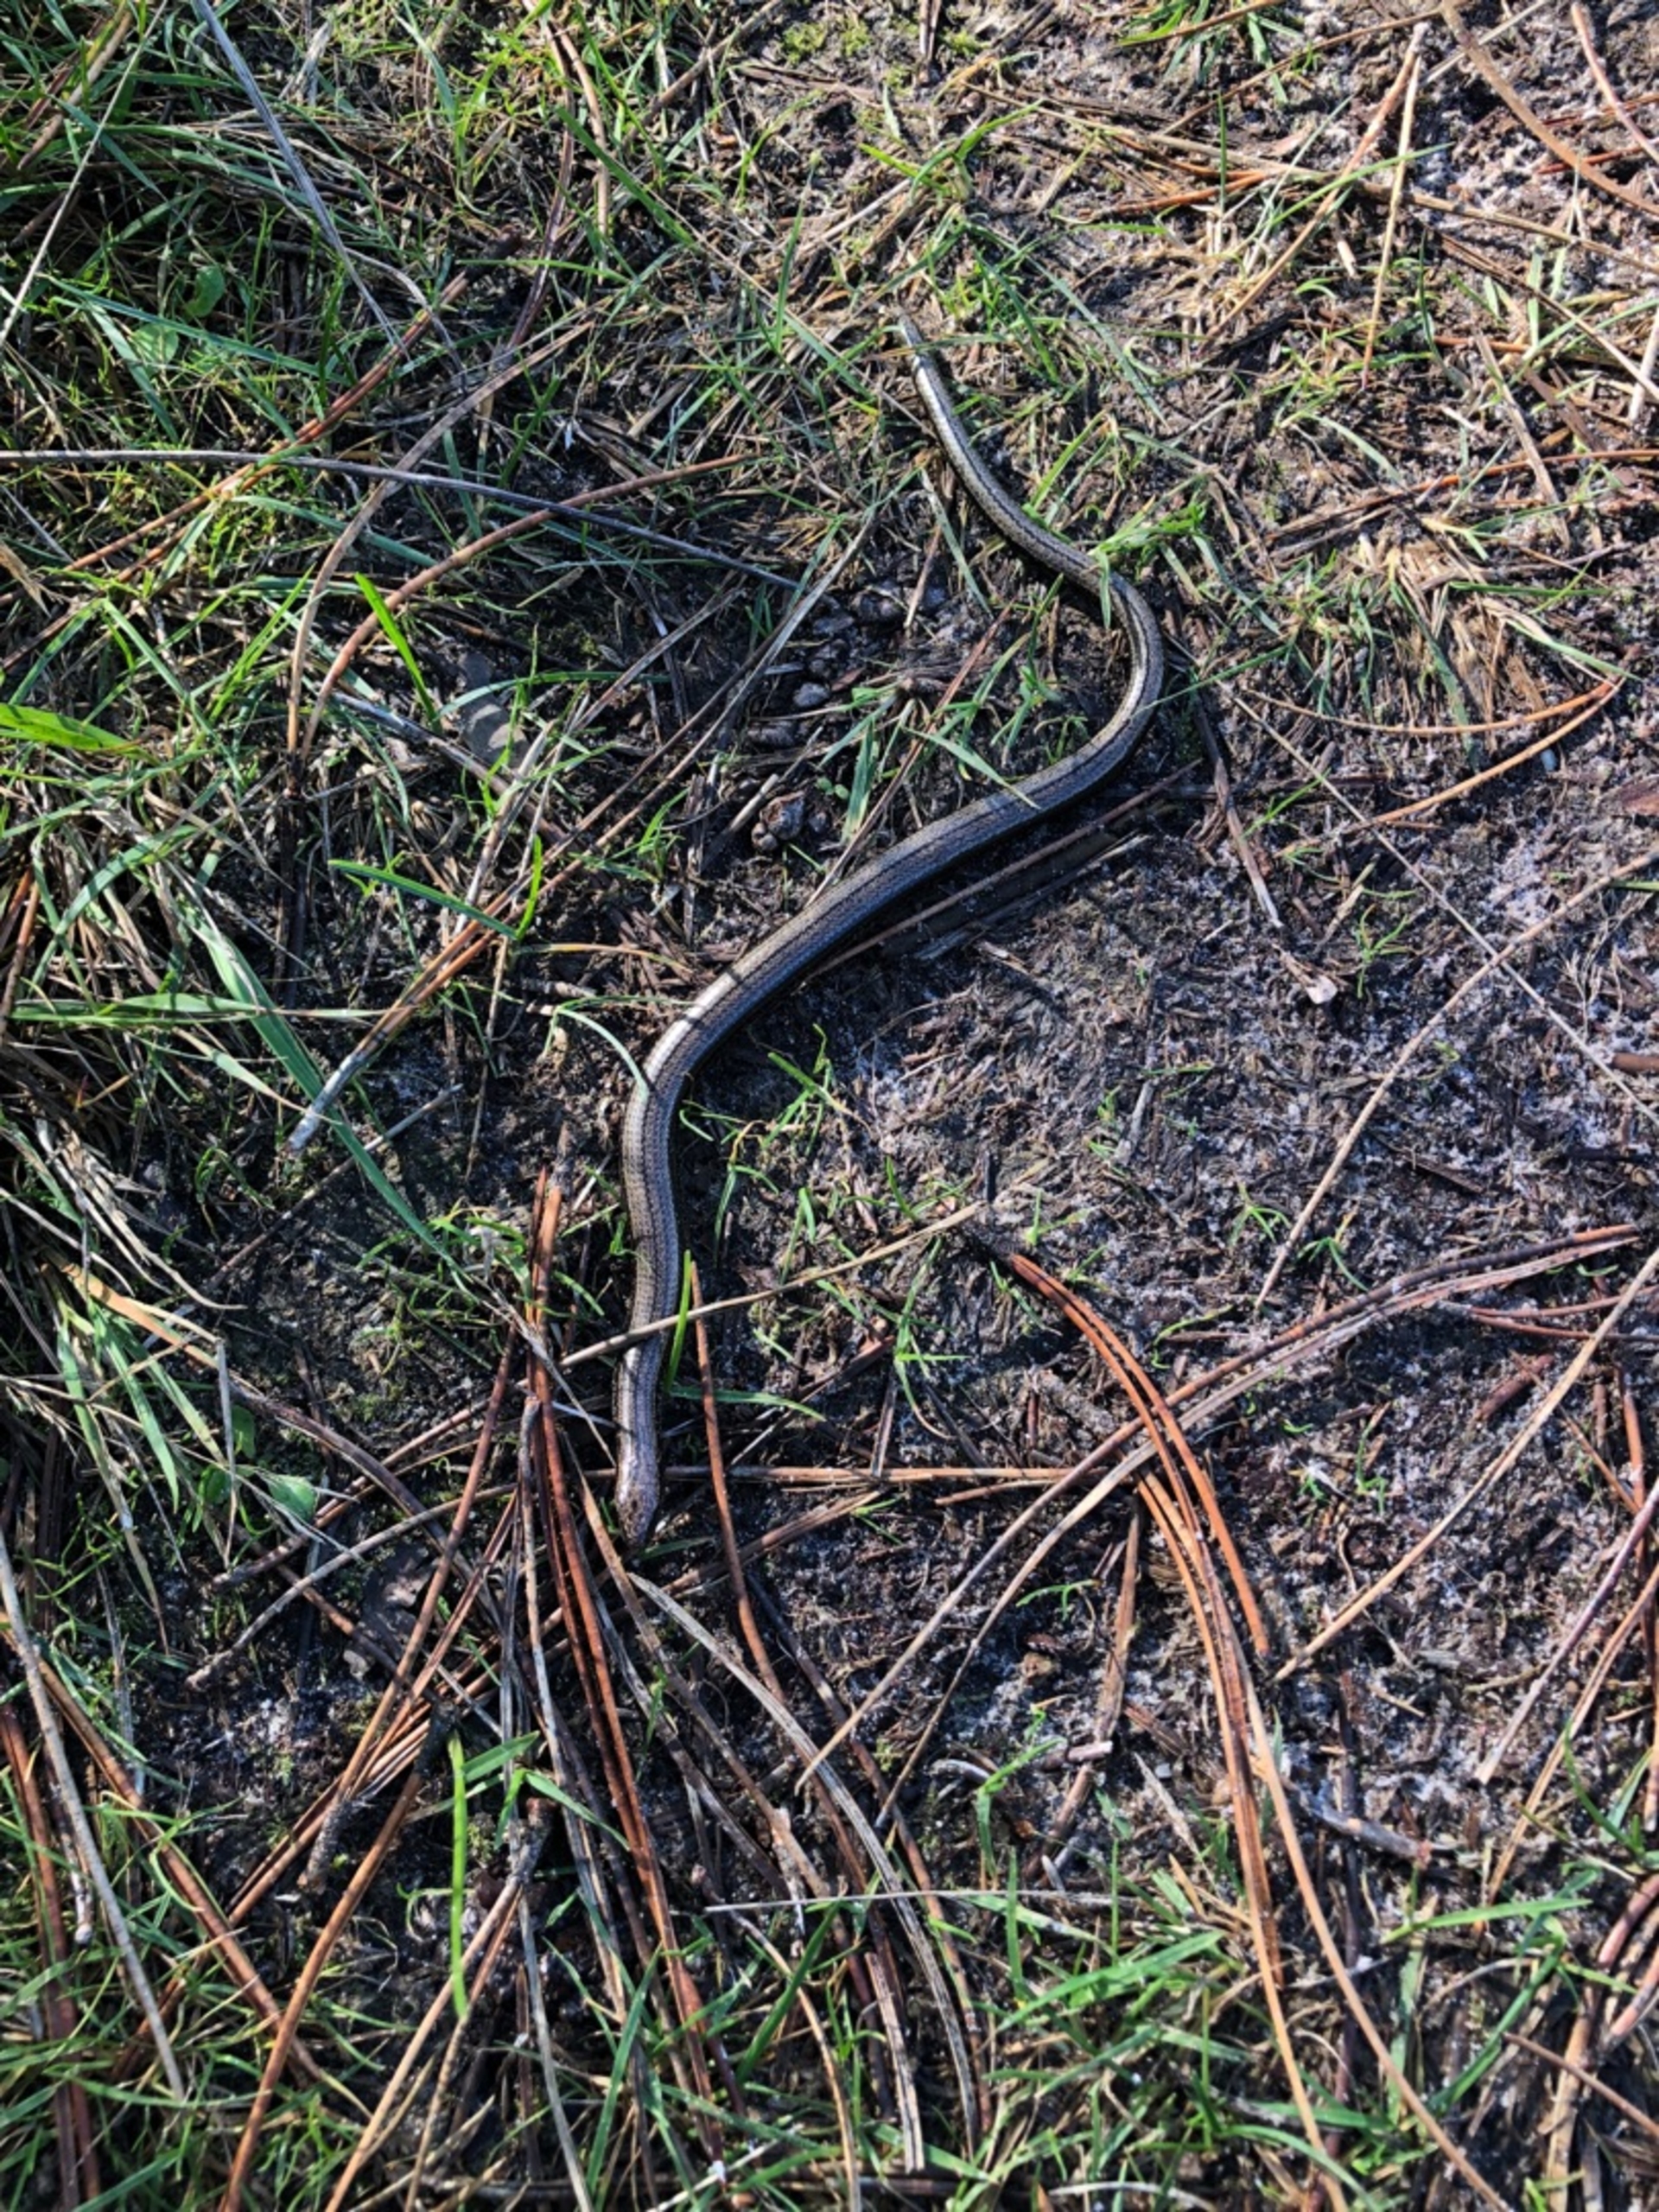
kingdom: Animalia
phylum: Chordata
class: Squamata
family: Anguidae
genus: Anguis
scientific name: Anguis fragilis
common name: Stålorm
